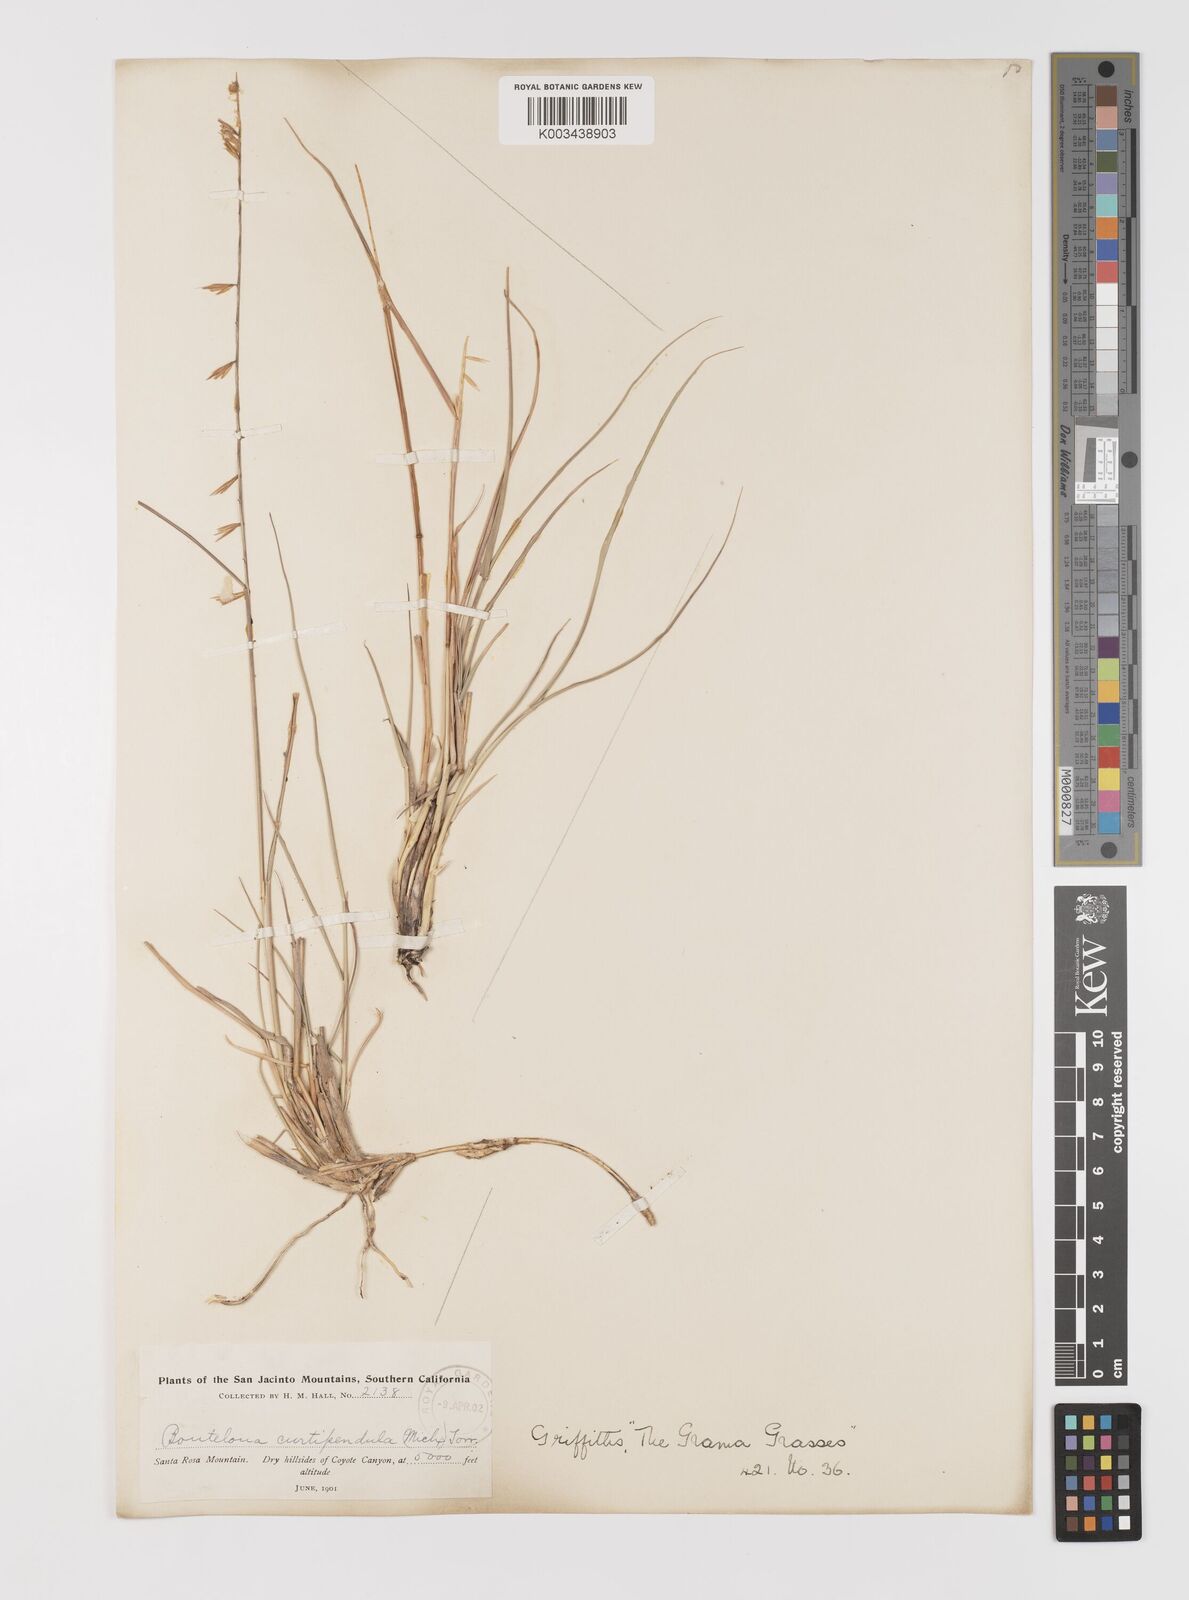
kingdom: Plantae
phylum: Tracheophyta
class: Liliopsida
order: Poales
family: Poaceae
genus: Bouteloua
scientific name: Bouteloua curtipendula
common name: Side-oats grama
